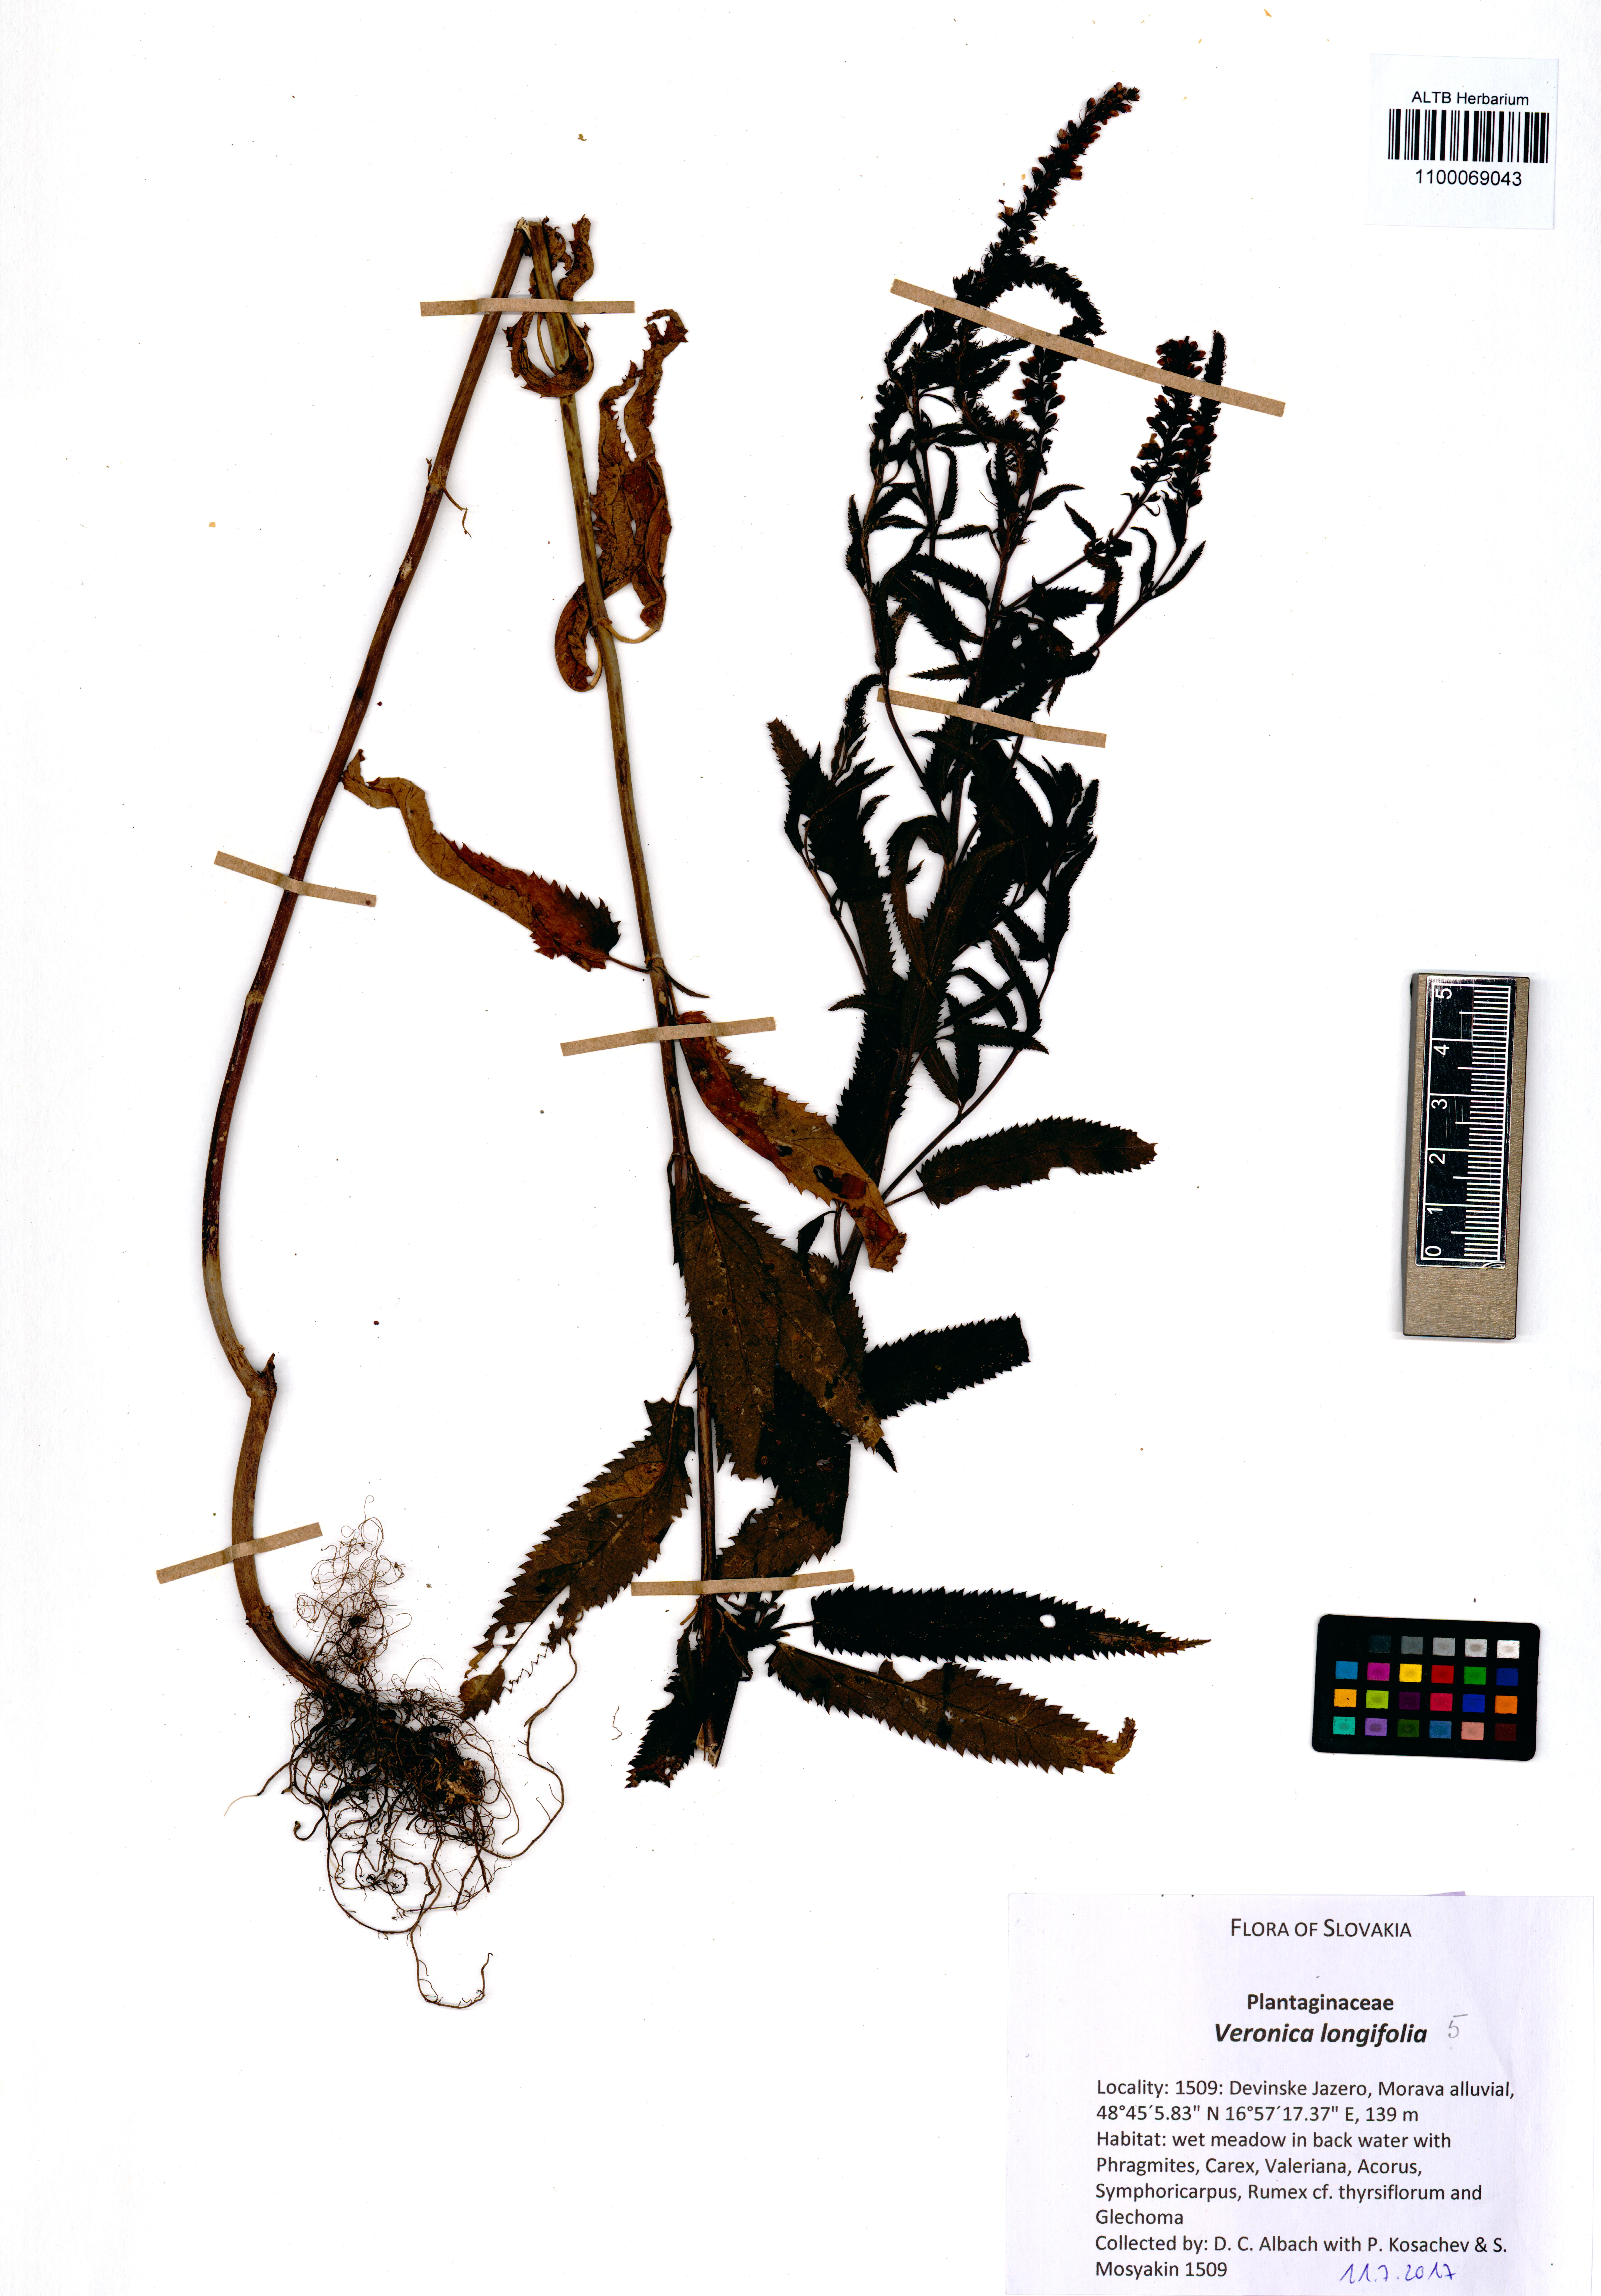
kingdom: Plantae
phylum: Tracheophyta
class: Magnoliopsida
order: Lamiales
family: Plantaginaceae
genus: Veronica
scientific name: Veronica longifolia
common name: Garden speedwell
